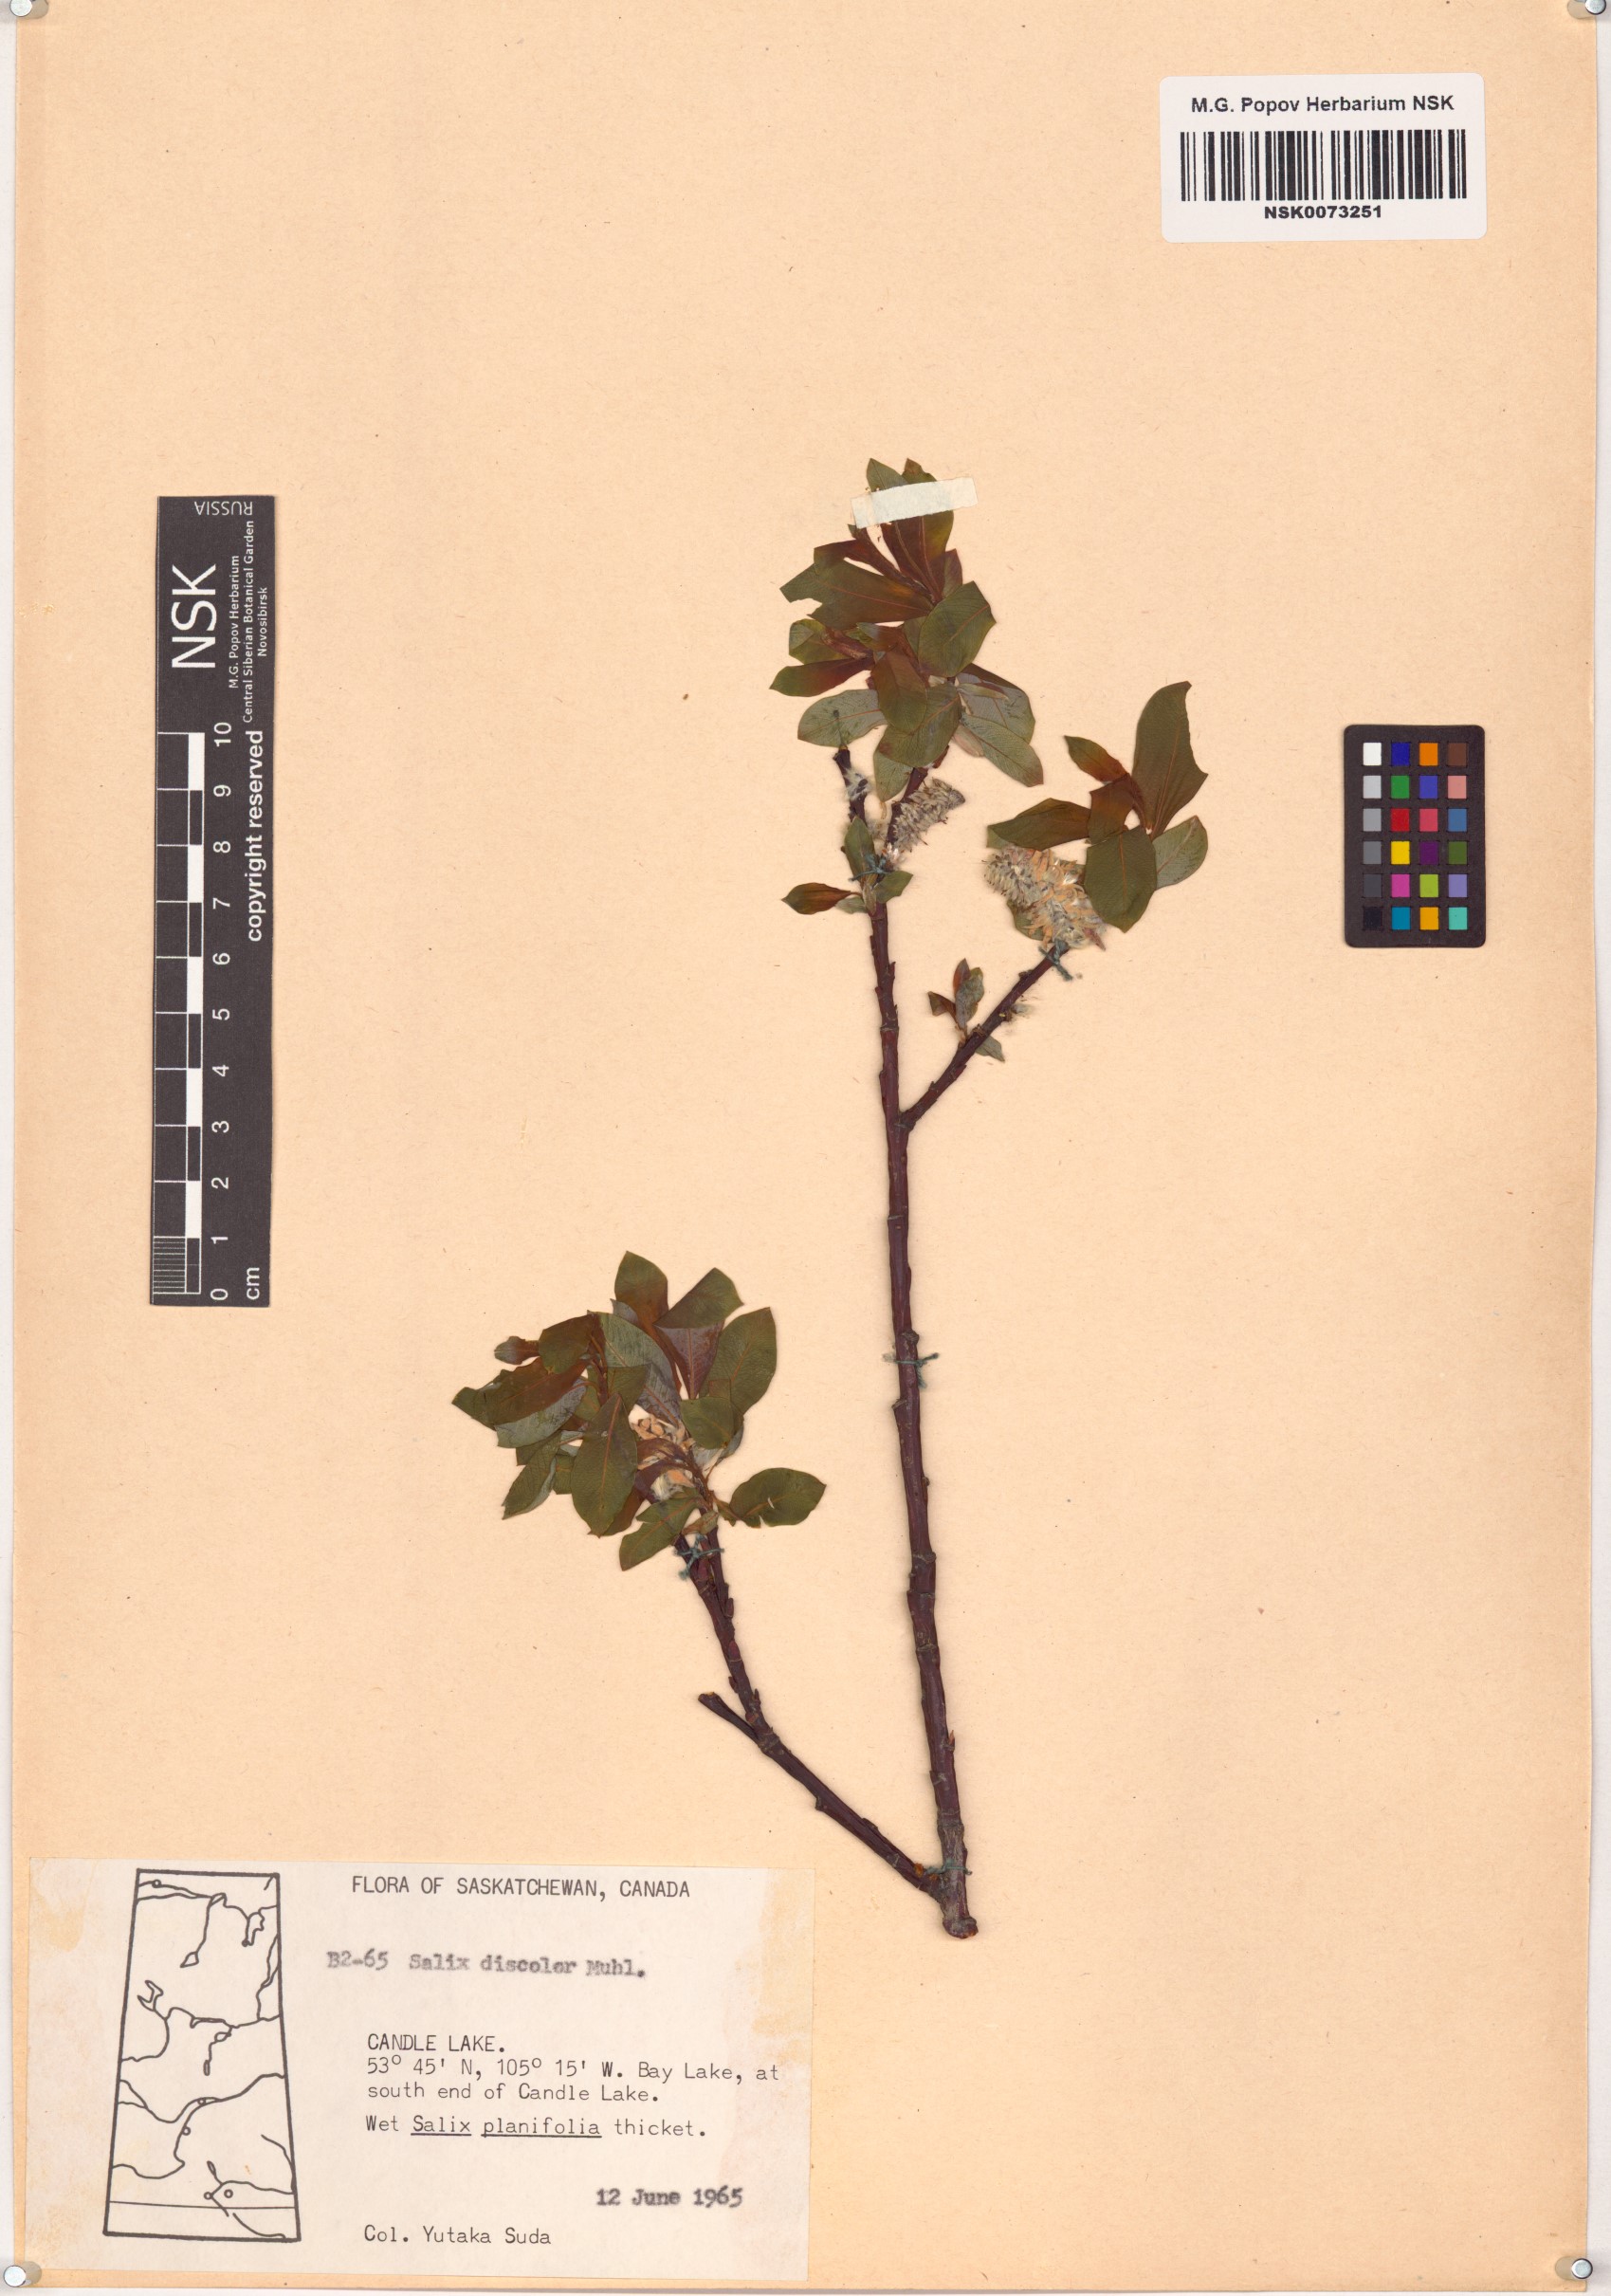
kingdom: Plantae
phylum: Tracheophyta
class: Magnoliopsida
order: Malpighiales
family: Salicaceae
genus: Salix
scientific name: Salix discolor
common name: Glaucous willow
